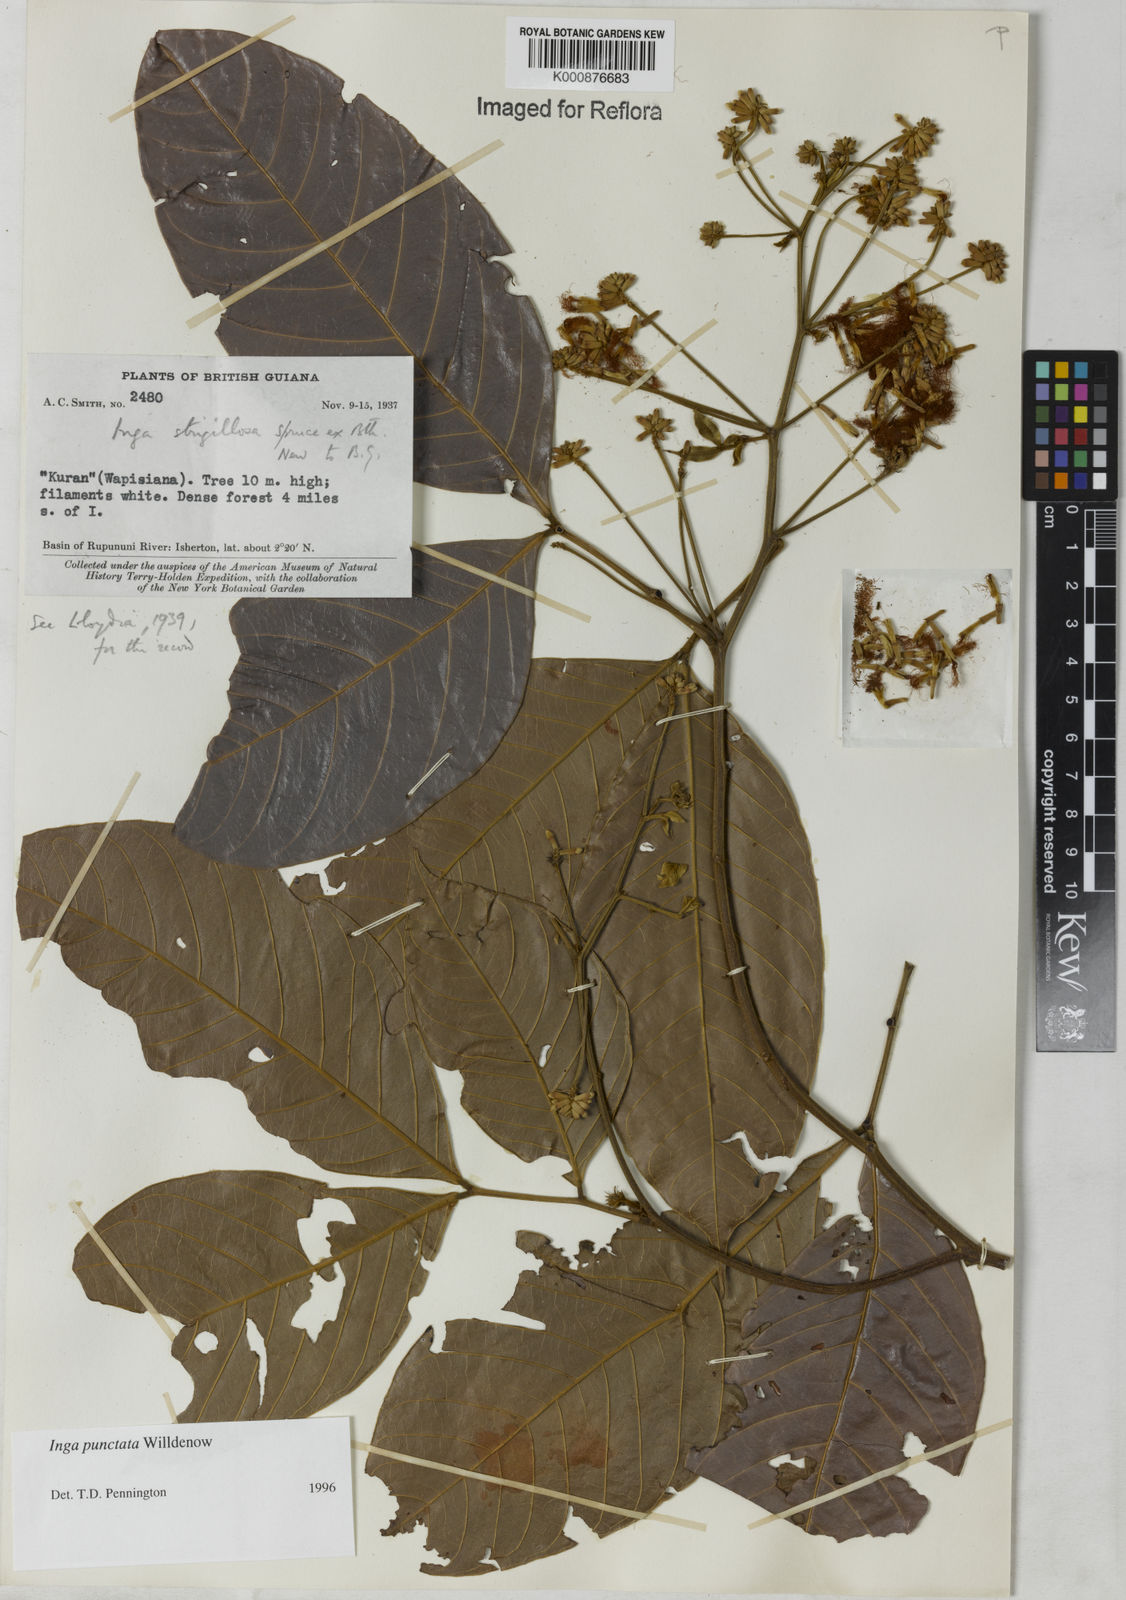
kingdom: Plantae
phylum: Tracheophyta
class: Magnoliopsida
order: Fabales
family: Fabaceae
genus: Inga
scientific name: Inga punctata
